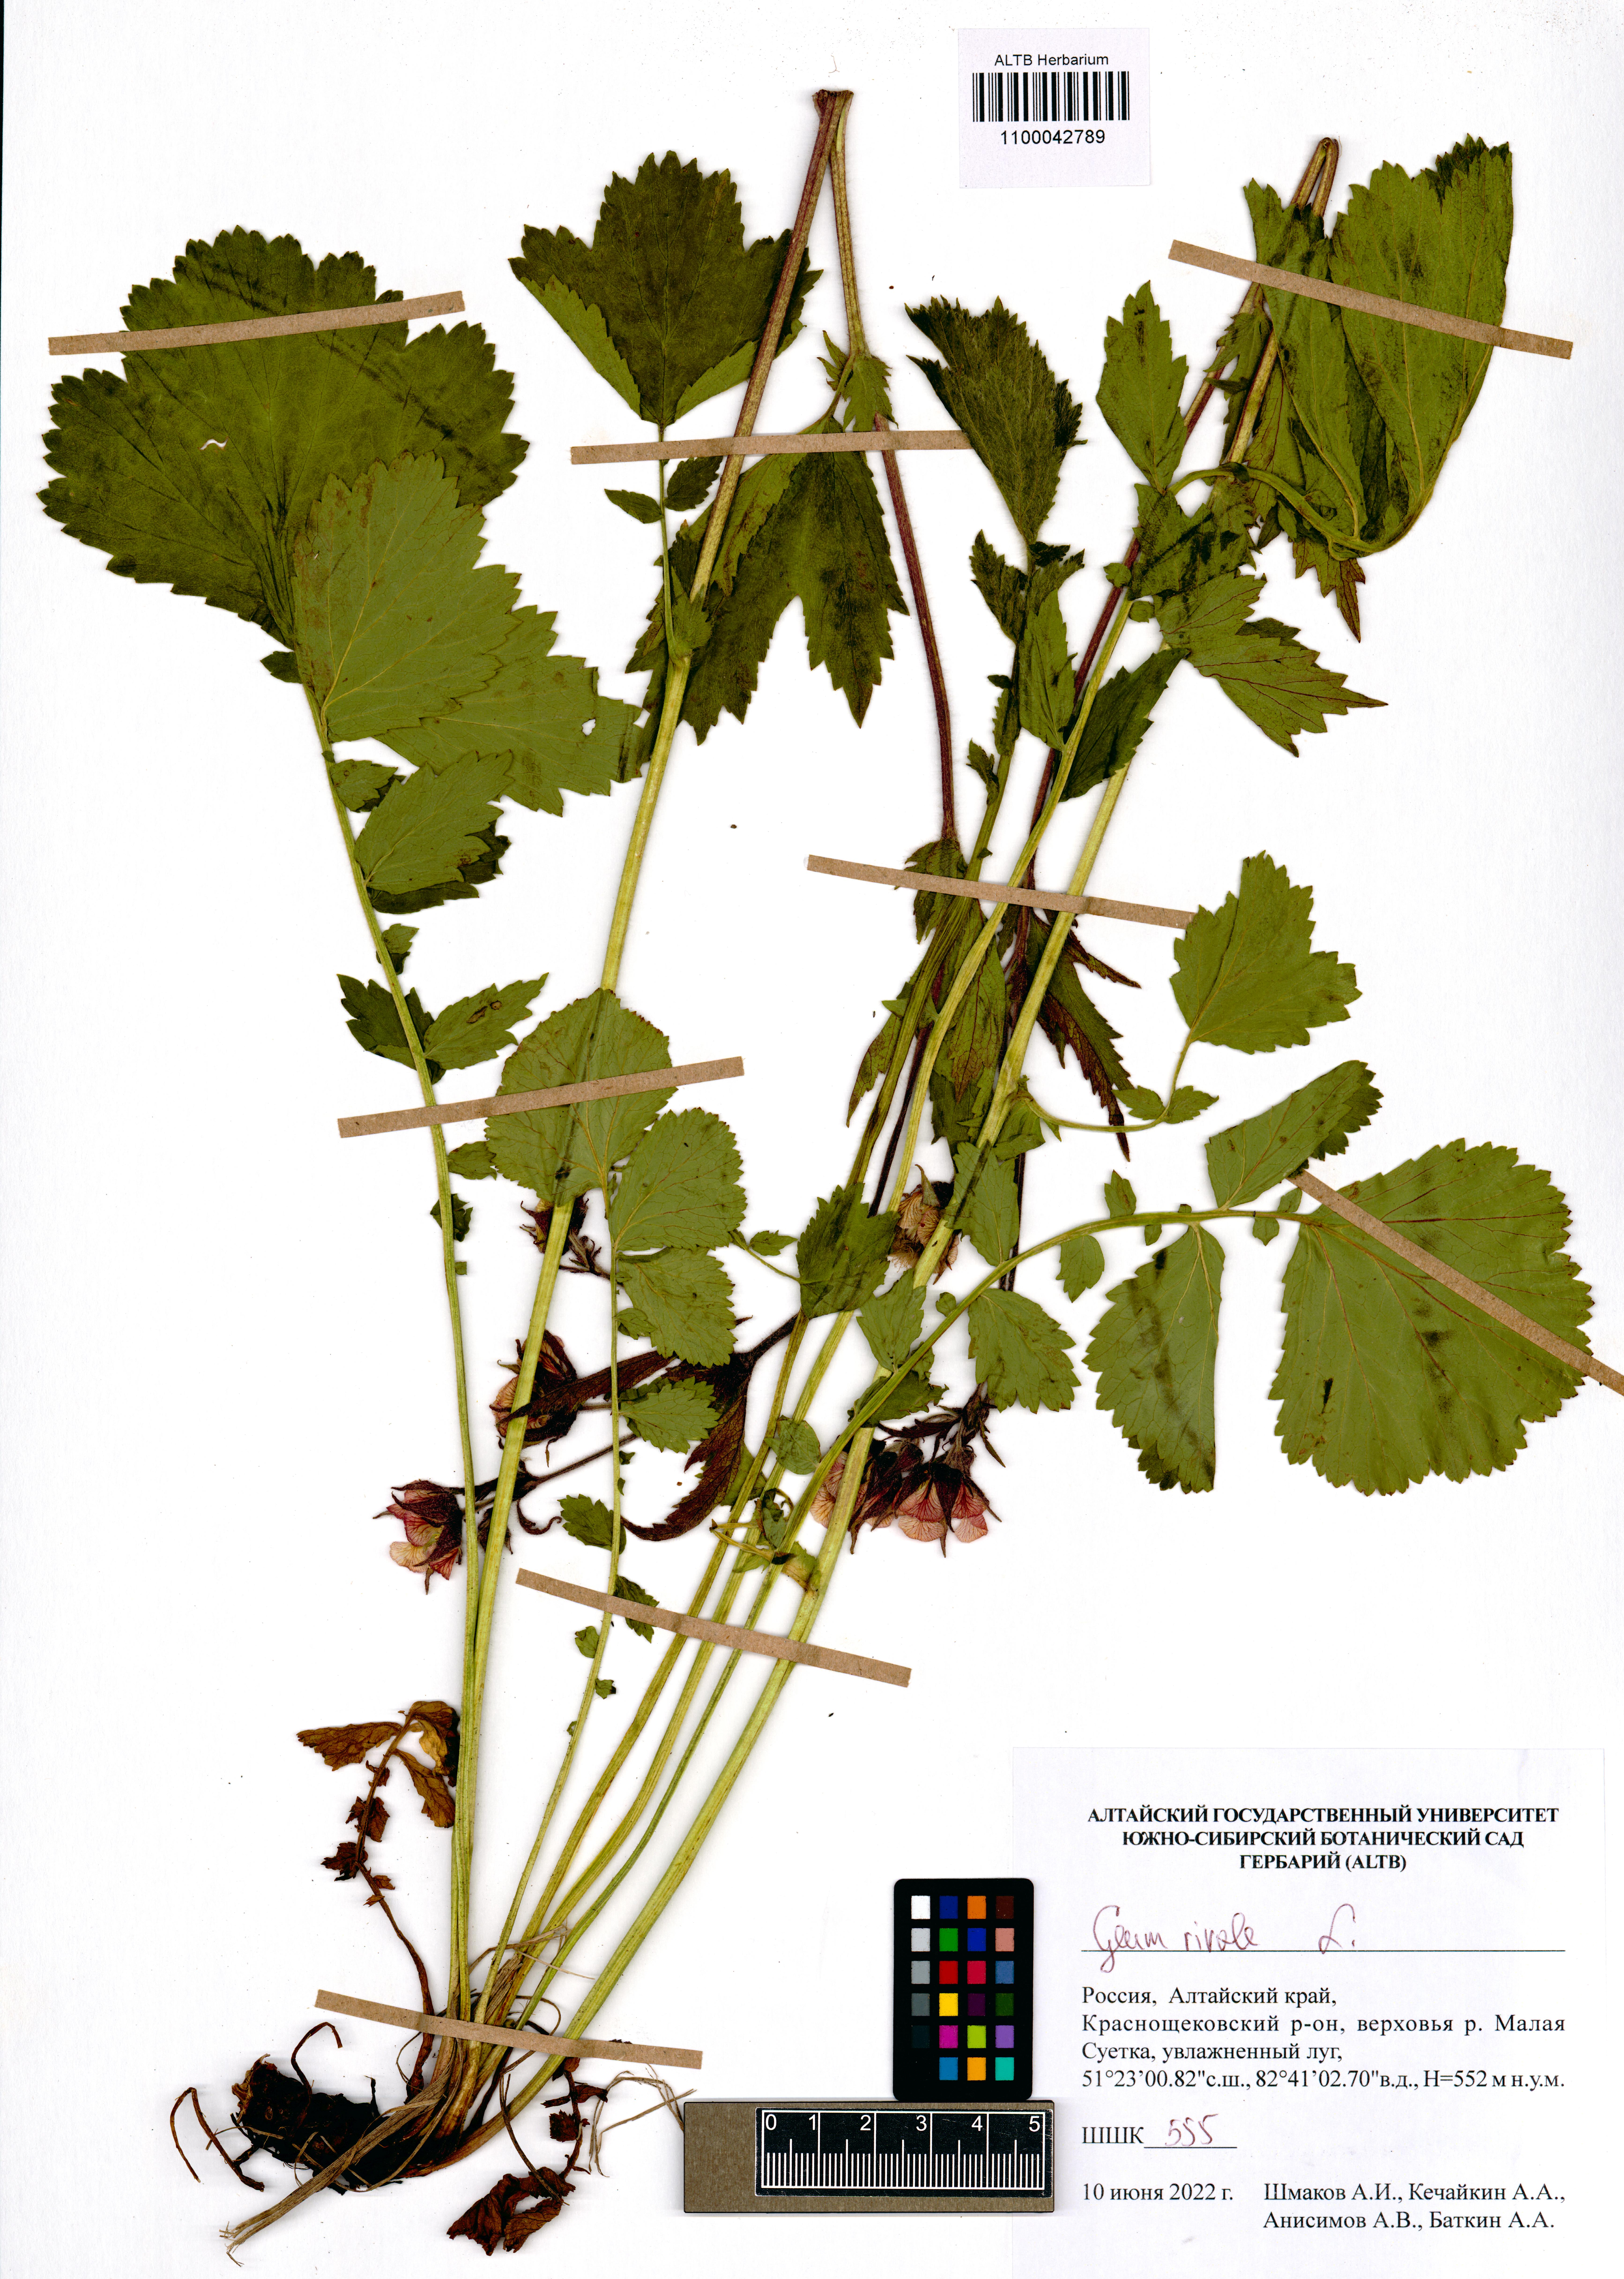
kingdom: Plantae
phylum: Tracheophyta
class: Magnoliopsida
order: Rosales
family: Rosaceae
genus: Geum
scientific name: Geum rivale
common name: Water avens
